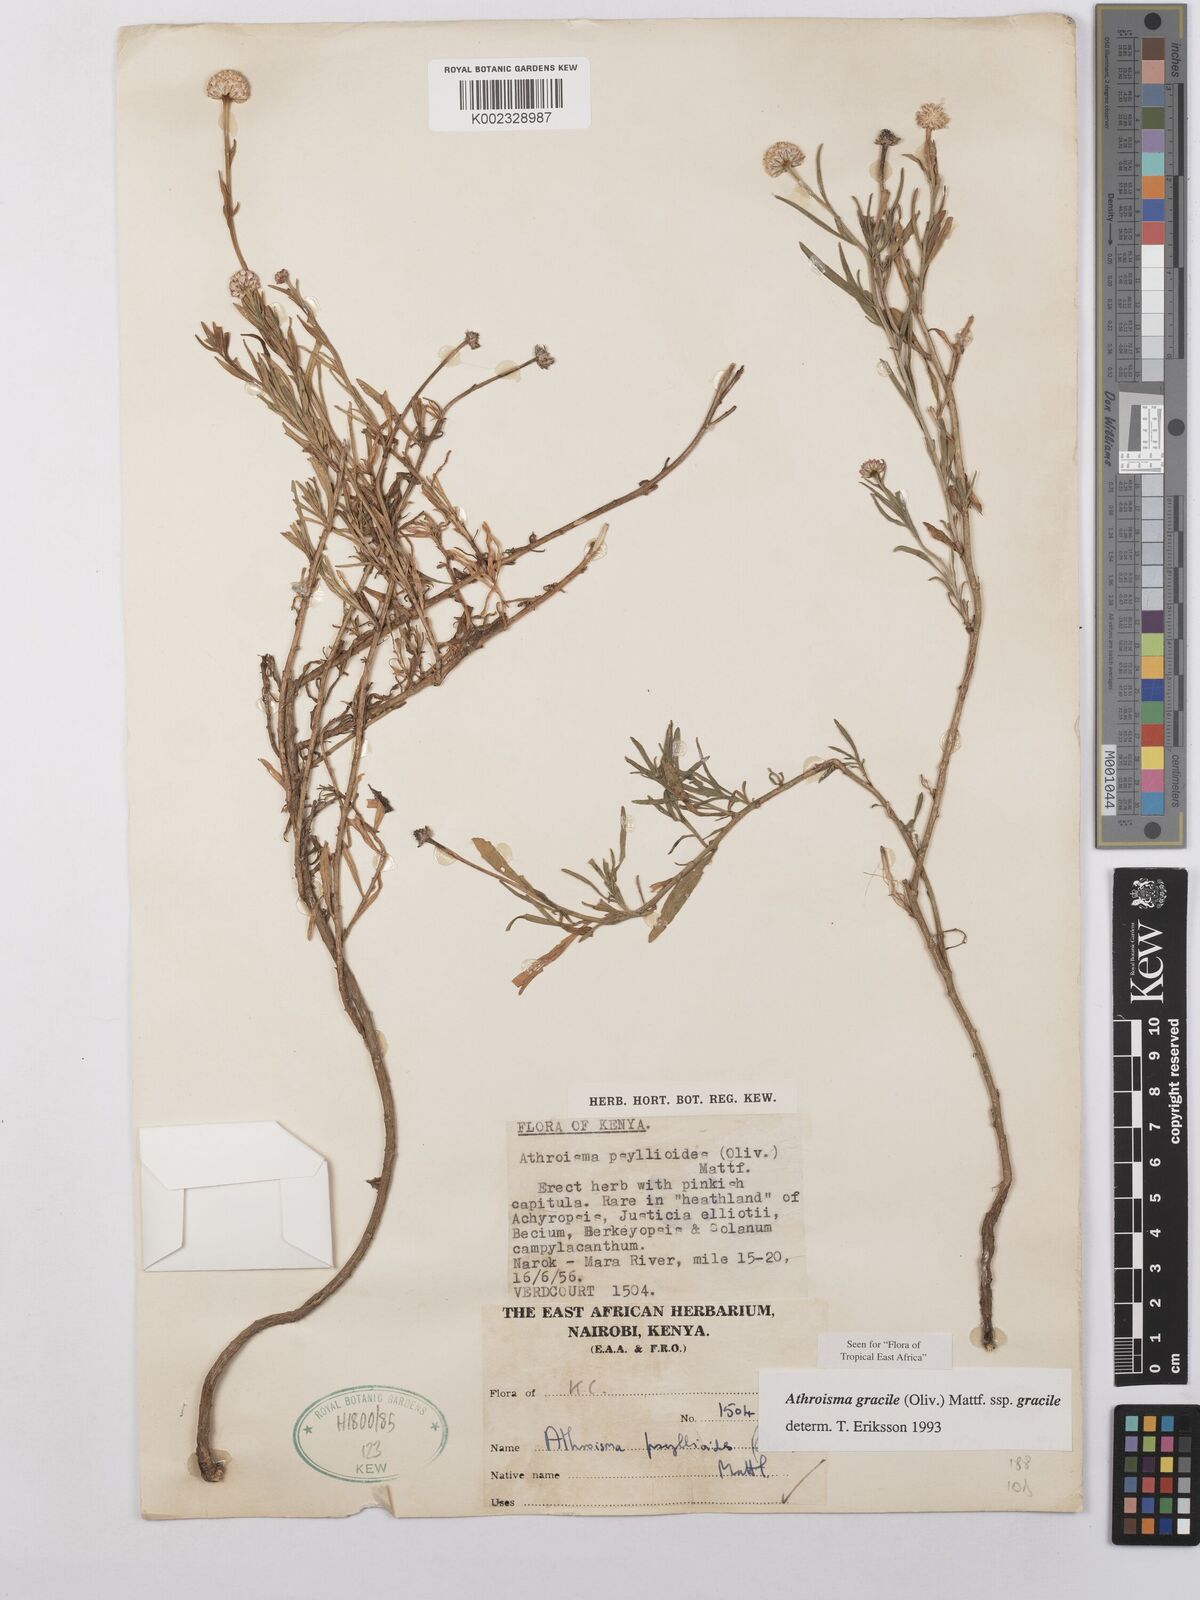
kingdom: Plantae
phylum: Tracheophyta
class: Magnoliopsida
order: Asterales
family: Asteraceae
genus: Athroisma
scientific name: Athroisma gracile
